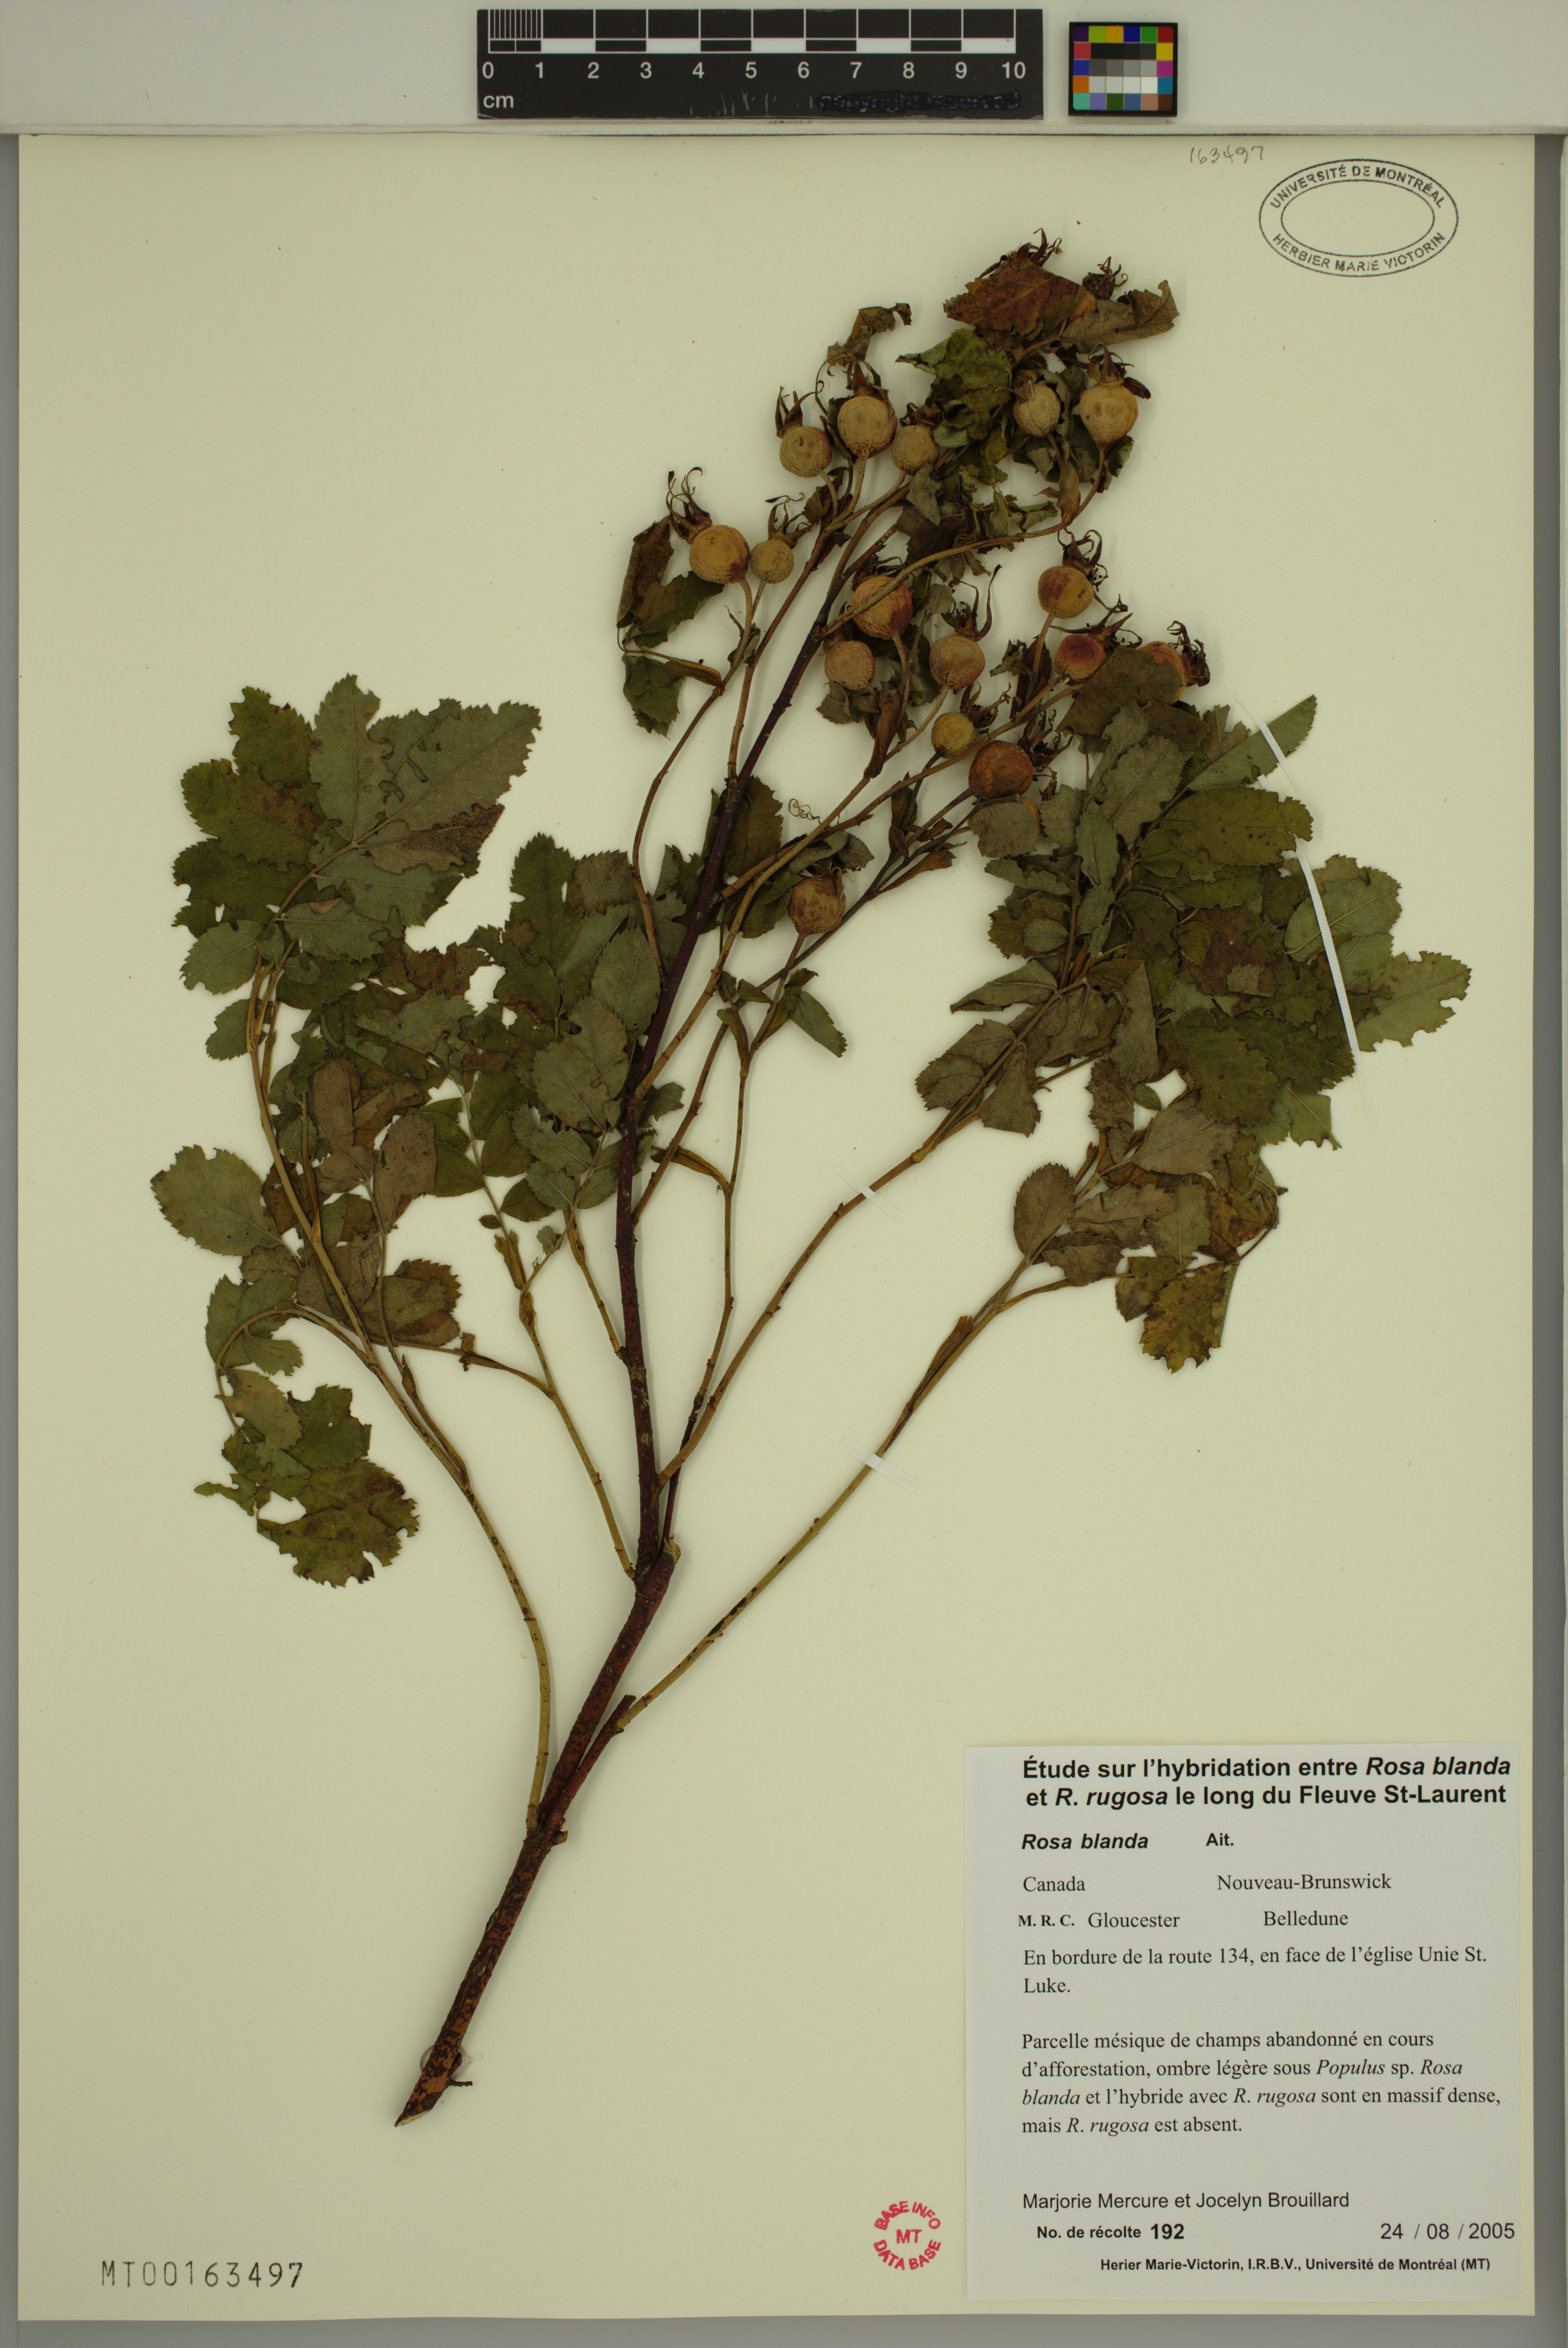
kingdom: Plantae
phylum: Tracheophyta
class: Magnoliopsida
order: Rosales
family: Rosaceae
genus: Rosa
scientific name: Rosa blanda
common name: Smooth rose
